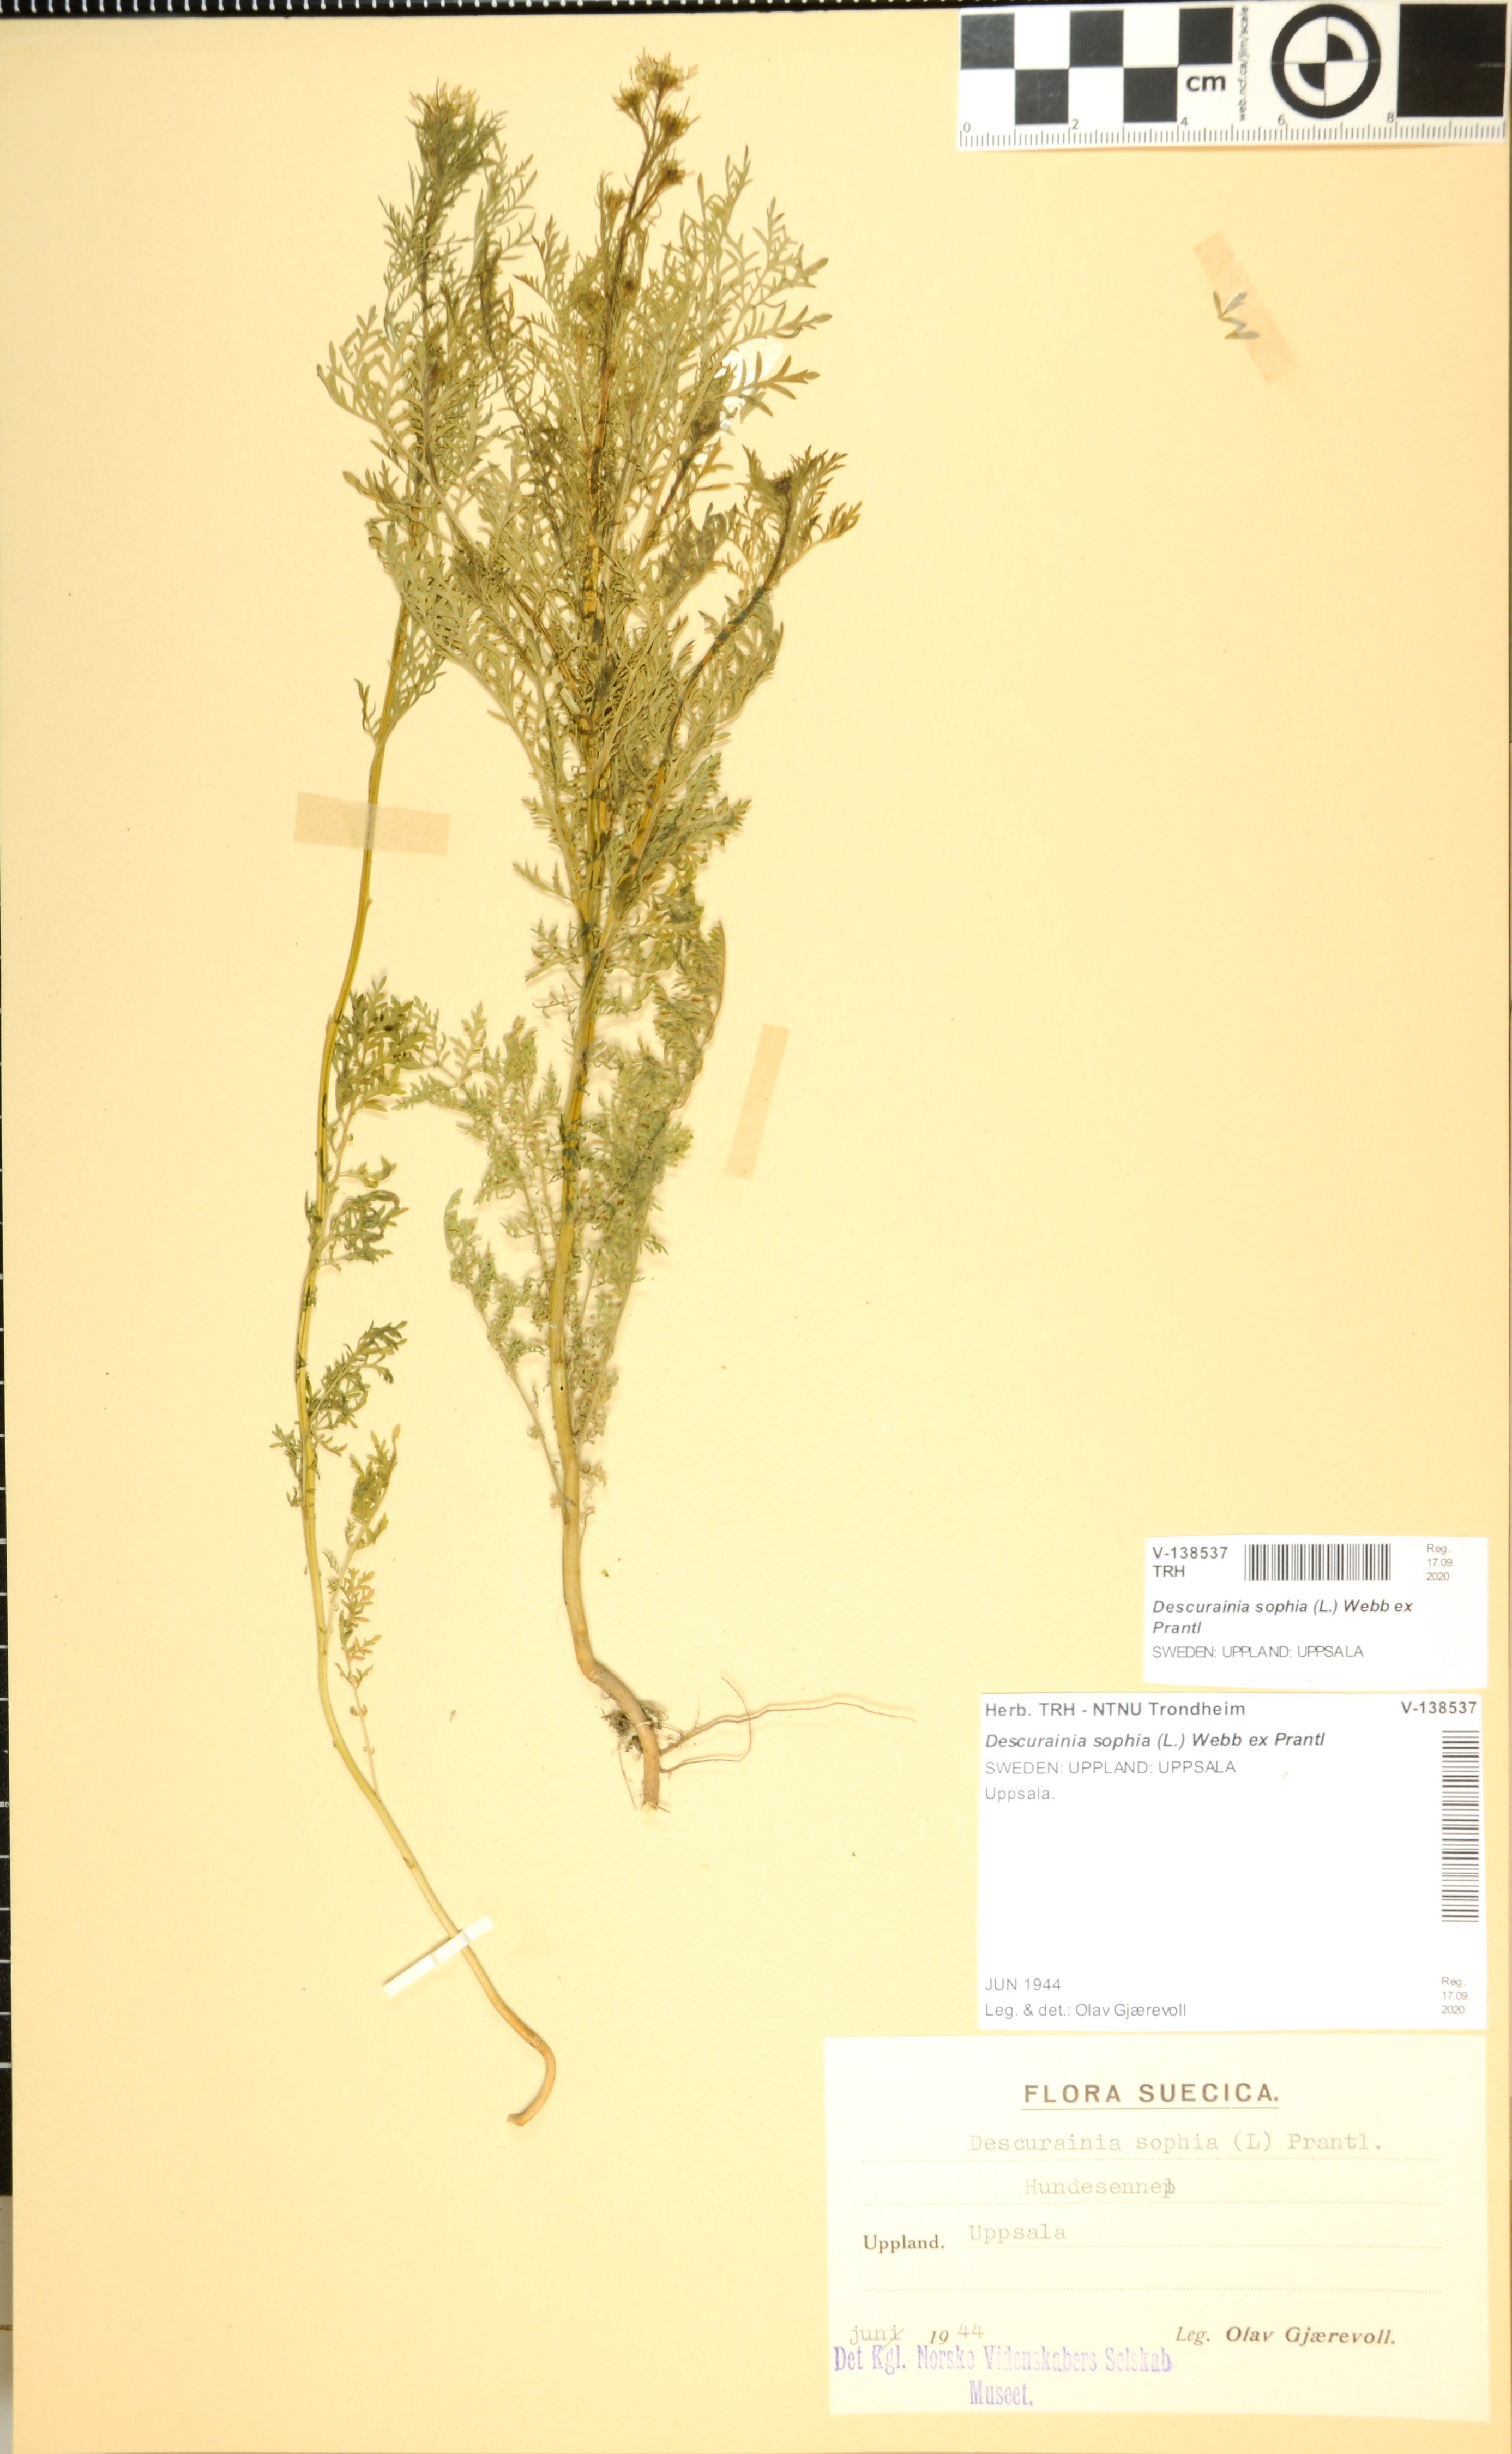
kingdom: Plantae
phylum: Tracheophyta
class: Magnoliopsida
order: Brassicales
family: Brassicaceae
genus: Descurainia
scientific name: Descurainia sophia
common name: Flixweed
